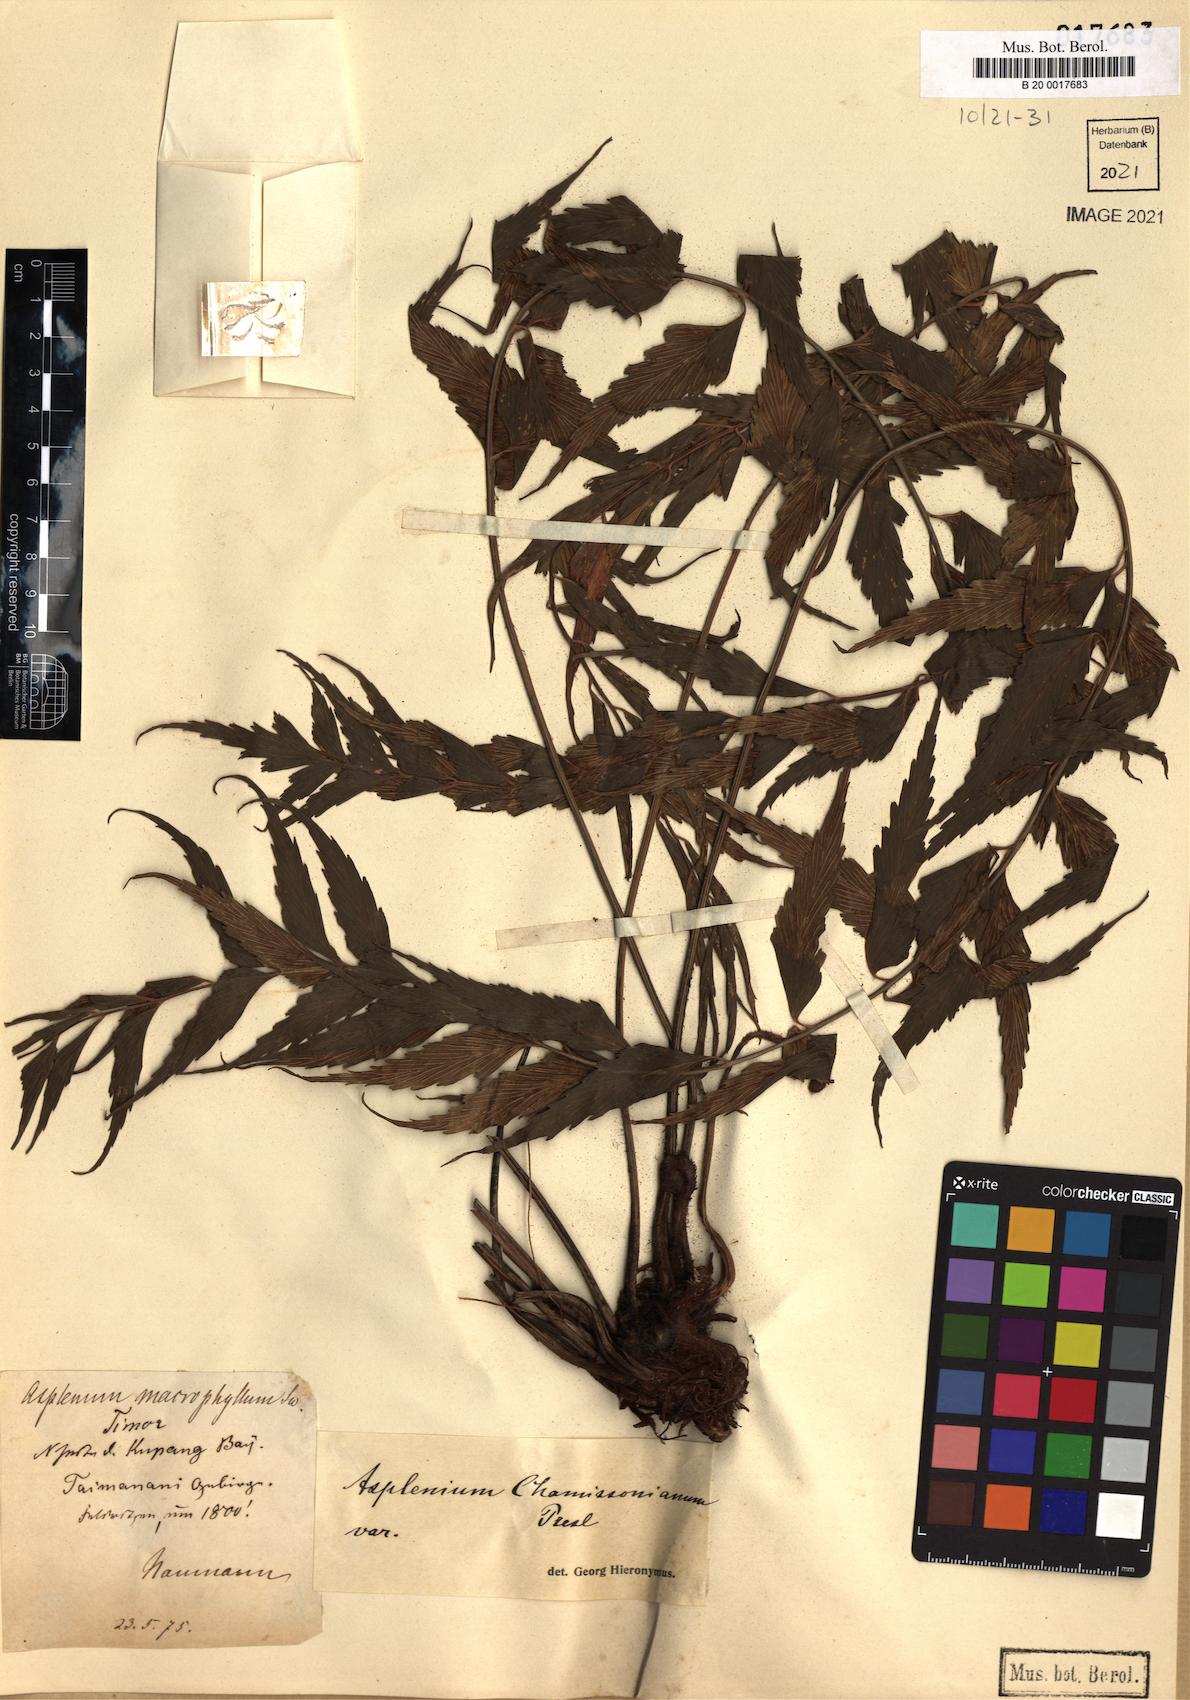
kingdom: Plantae
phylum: Tracheophyta
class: Polypodiopsida
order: Polypodiales
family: Aspleniaceae
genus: Asplenium
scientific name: Asplenium macrophyllum
